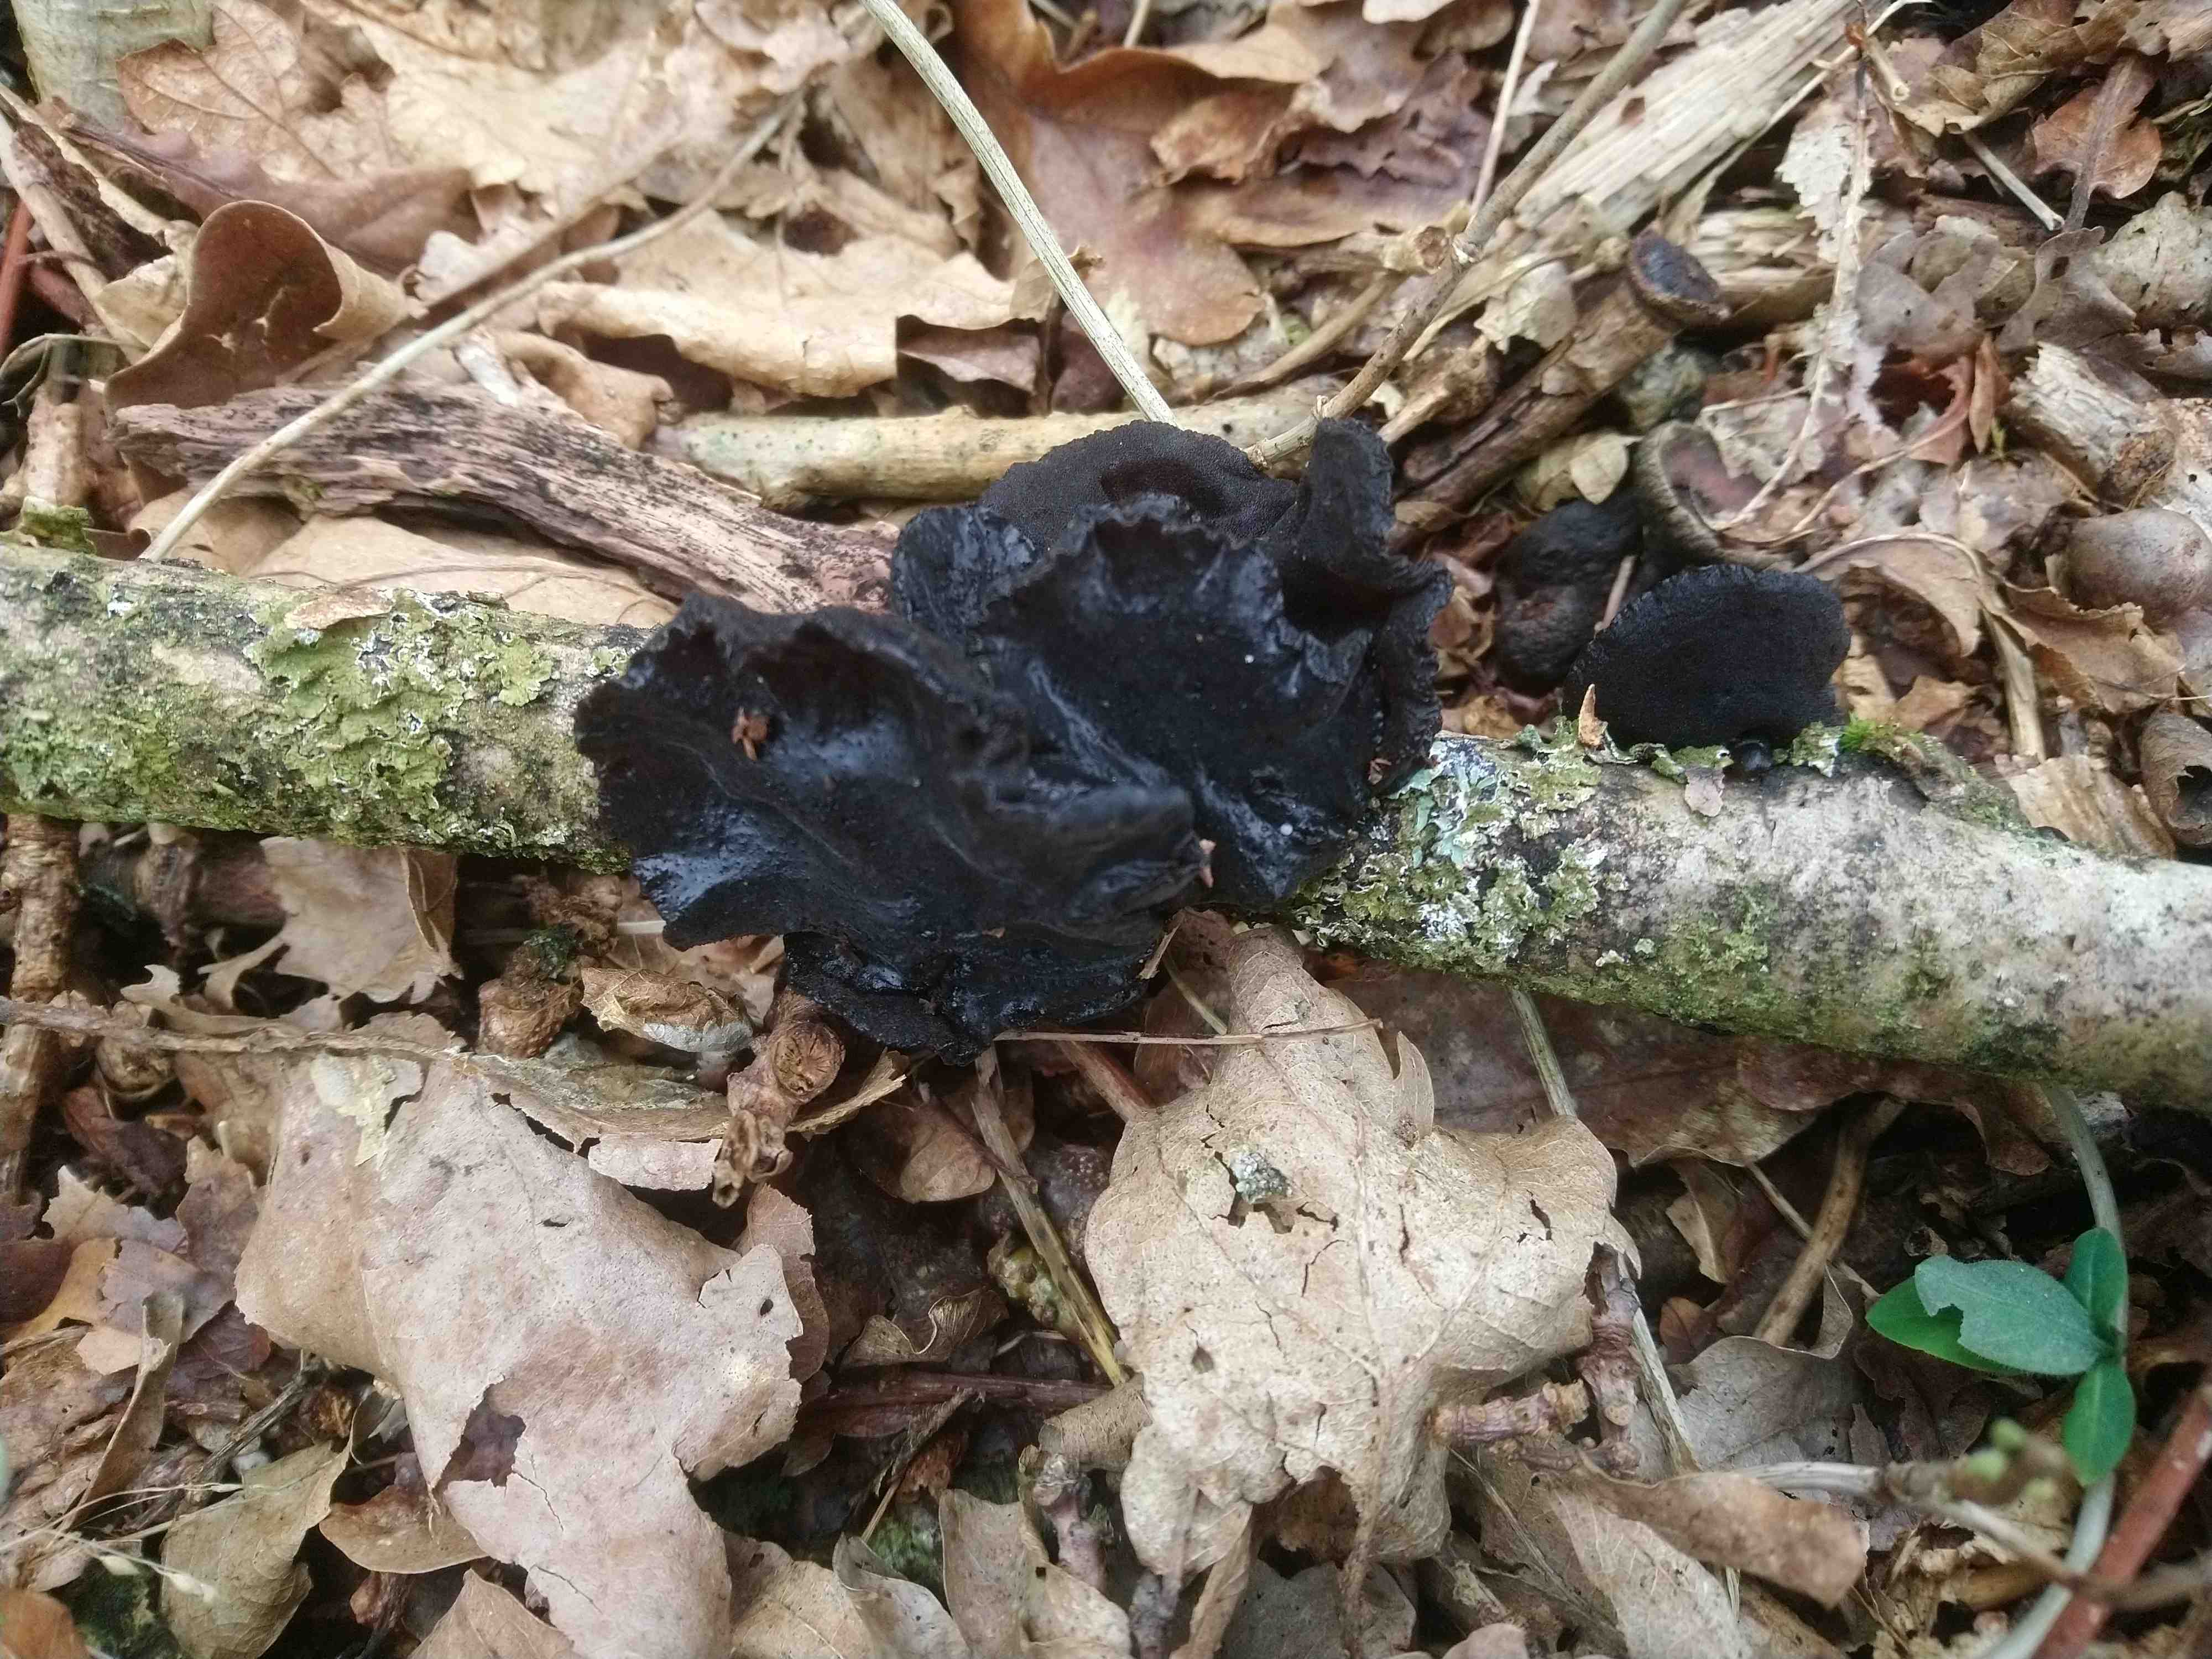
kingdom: Fungi
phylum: Basidiomycota
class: Agaricomycetes
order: Auriculariales
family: Auriculariaceae
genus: Exidia
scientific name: Exidia glandulosa
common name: ege-bævretop
